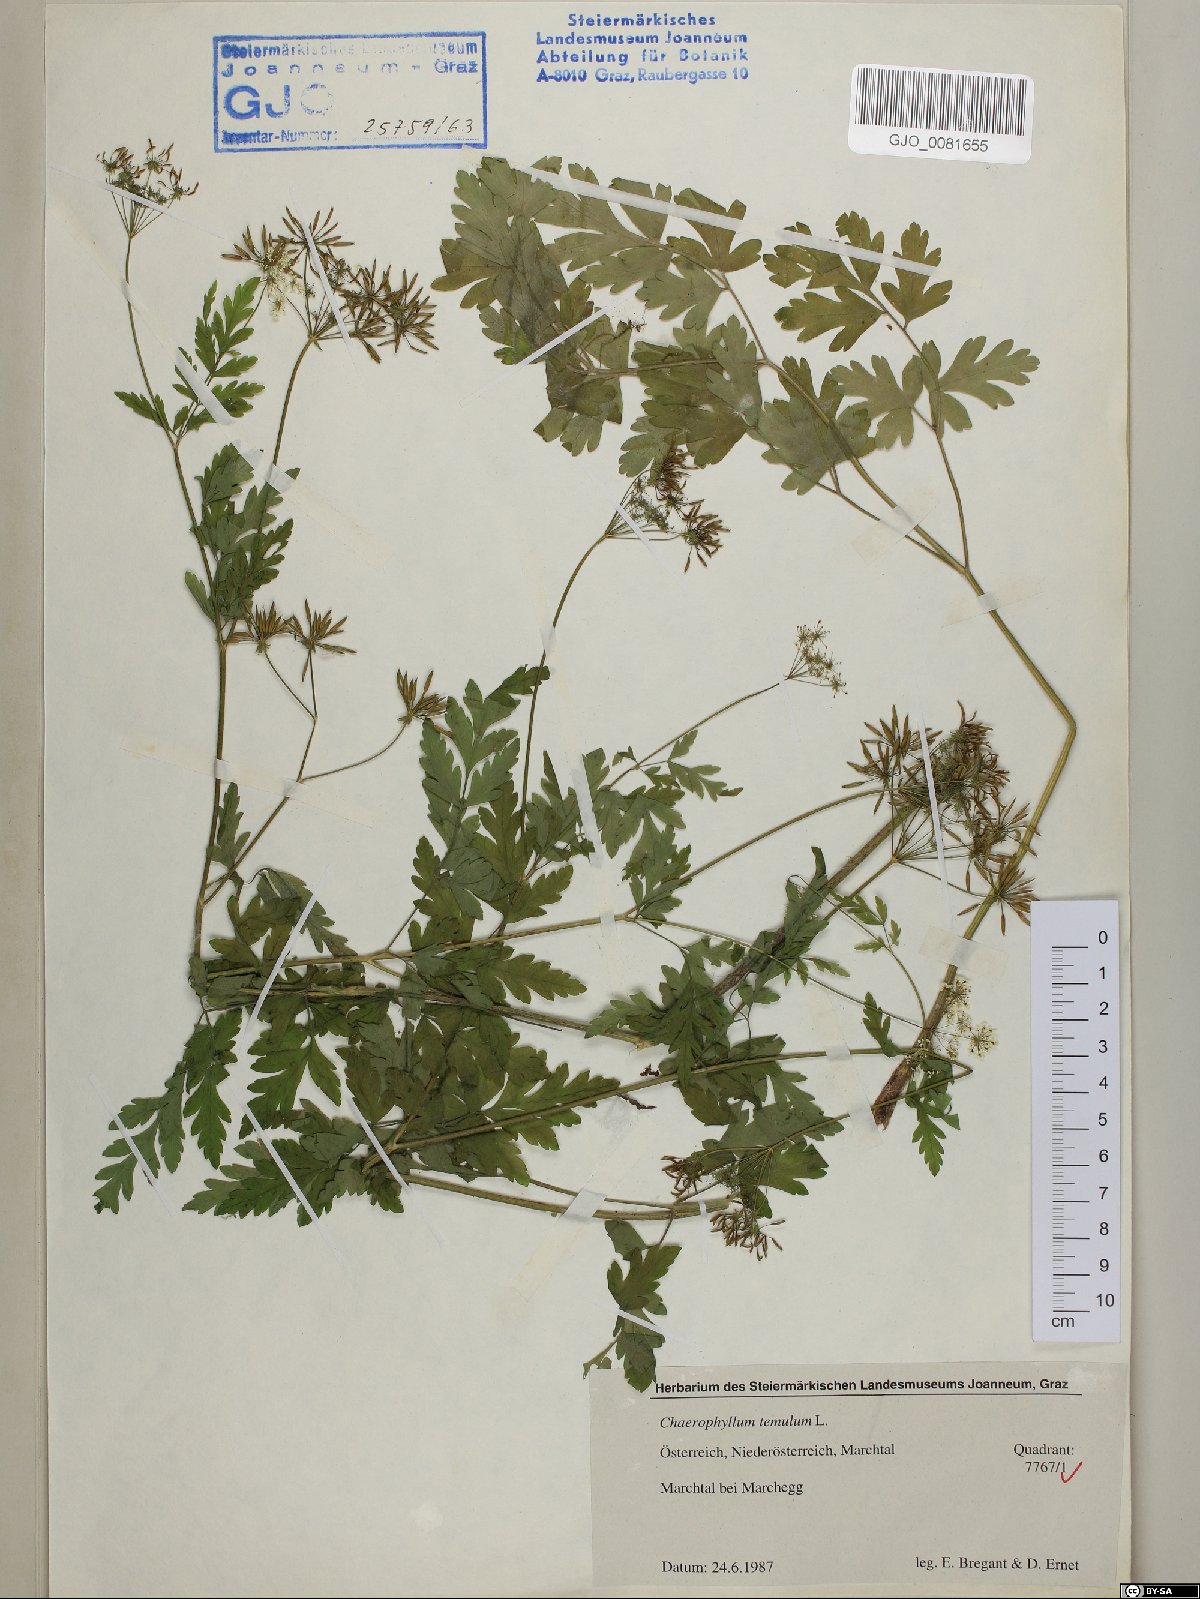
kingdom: Plantae
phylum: Tracheophyta
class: Magnoliopsida
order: Apiales
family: Apiaceae
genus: Chaerophyllum
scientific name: Chaerophyllum temulum
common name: Rough chervil
